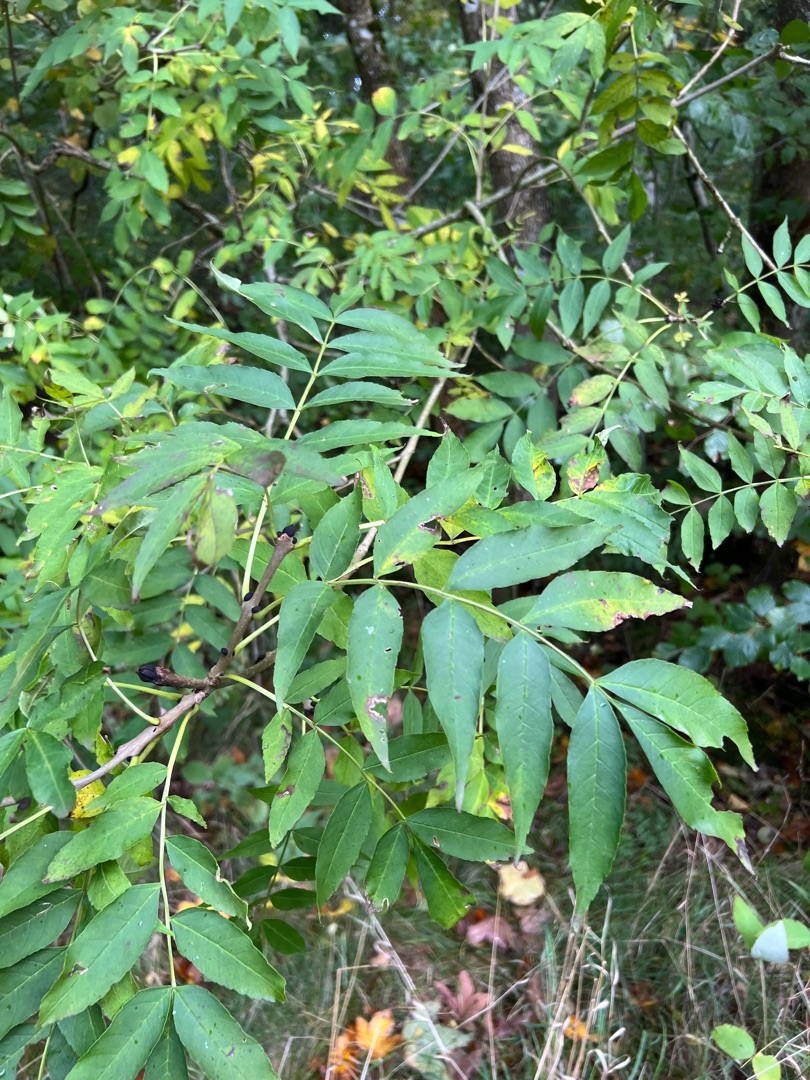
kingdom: Plantae
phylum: Tracheophyta
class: Magnoliopsida
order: Lamiales
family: Oleaceae
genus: Fraxinus
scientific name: Fraxinus excelsior
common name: Ask
